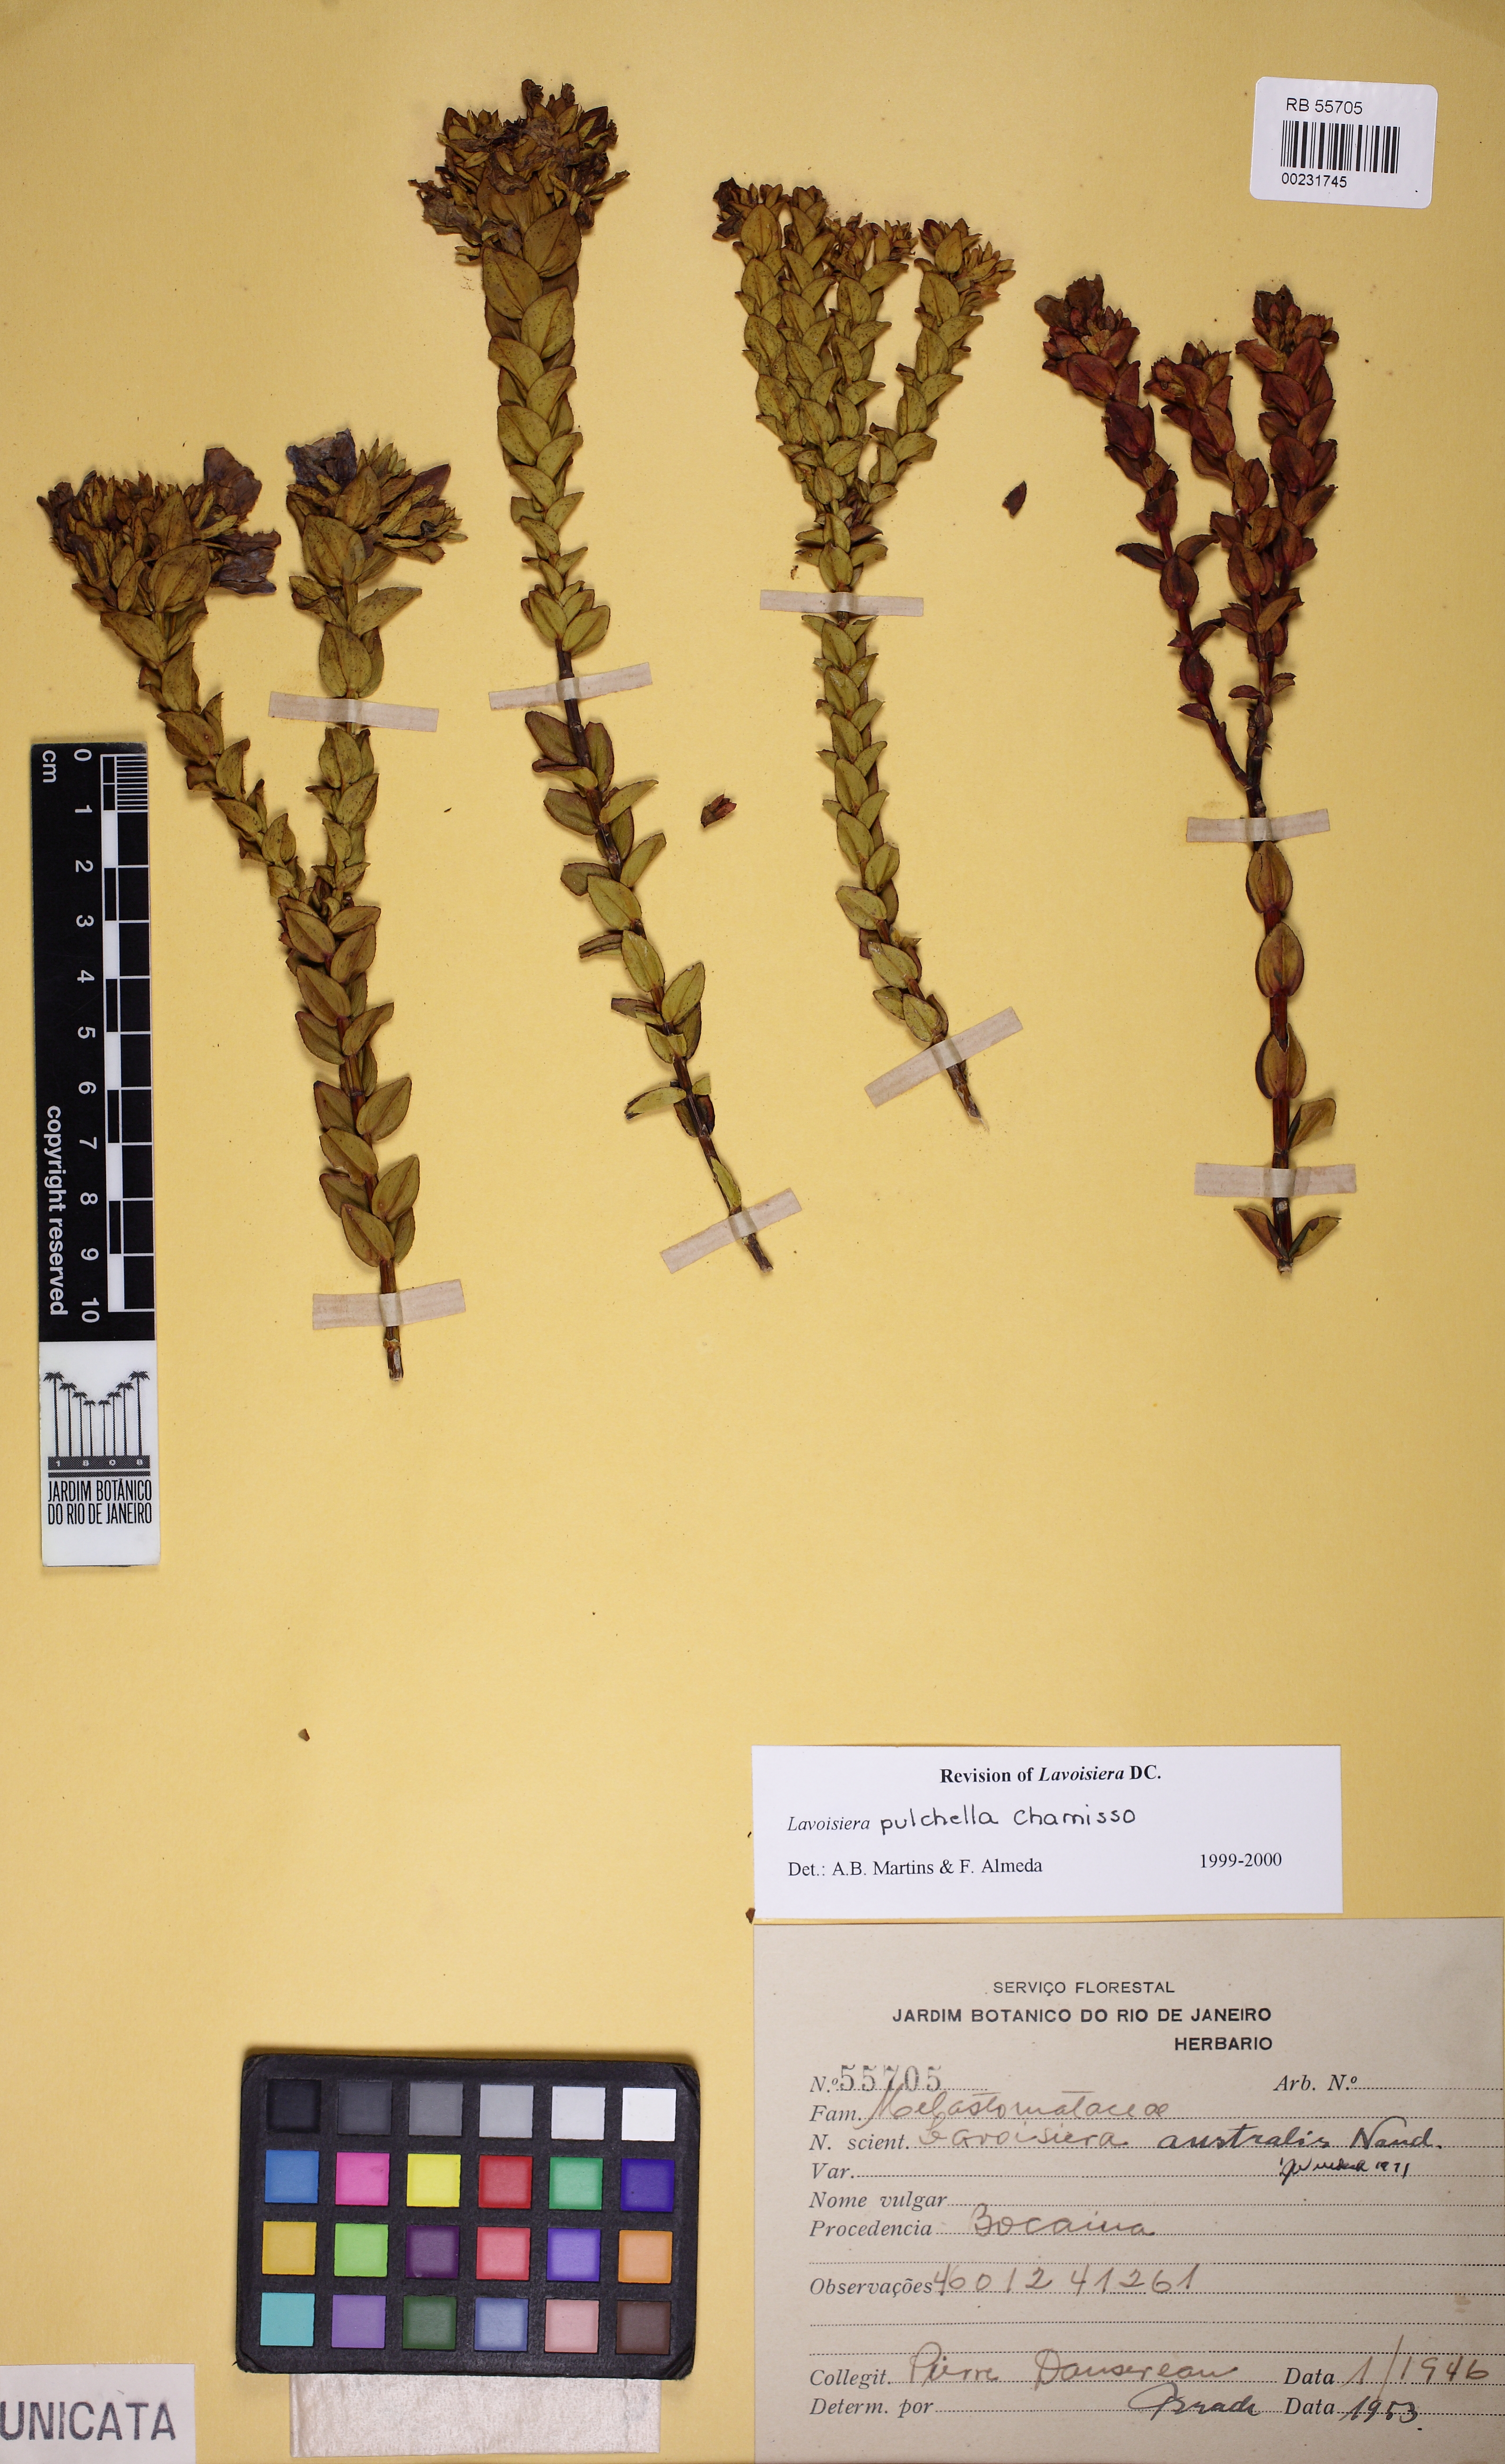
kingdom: Plantae
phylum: Tracheophyta
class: Magnoliopsida
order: Myrtales
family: Melastomataceae
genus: Microlicia
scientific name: Microlicia australis
